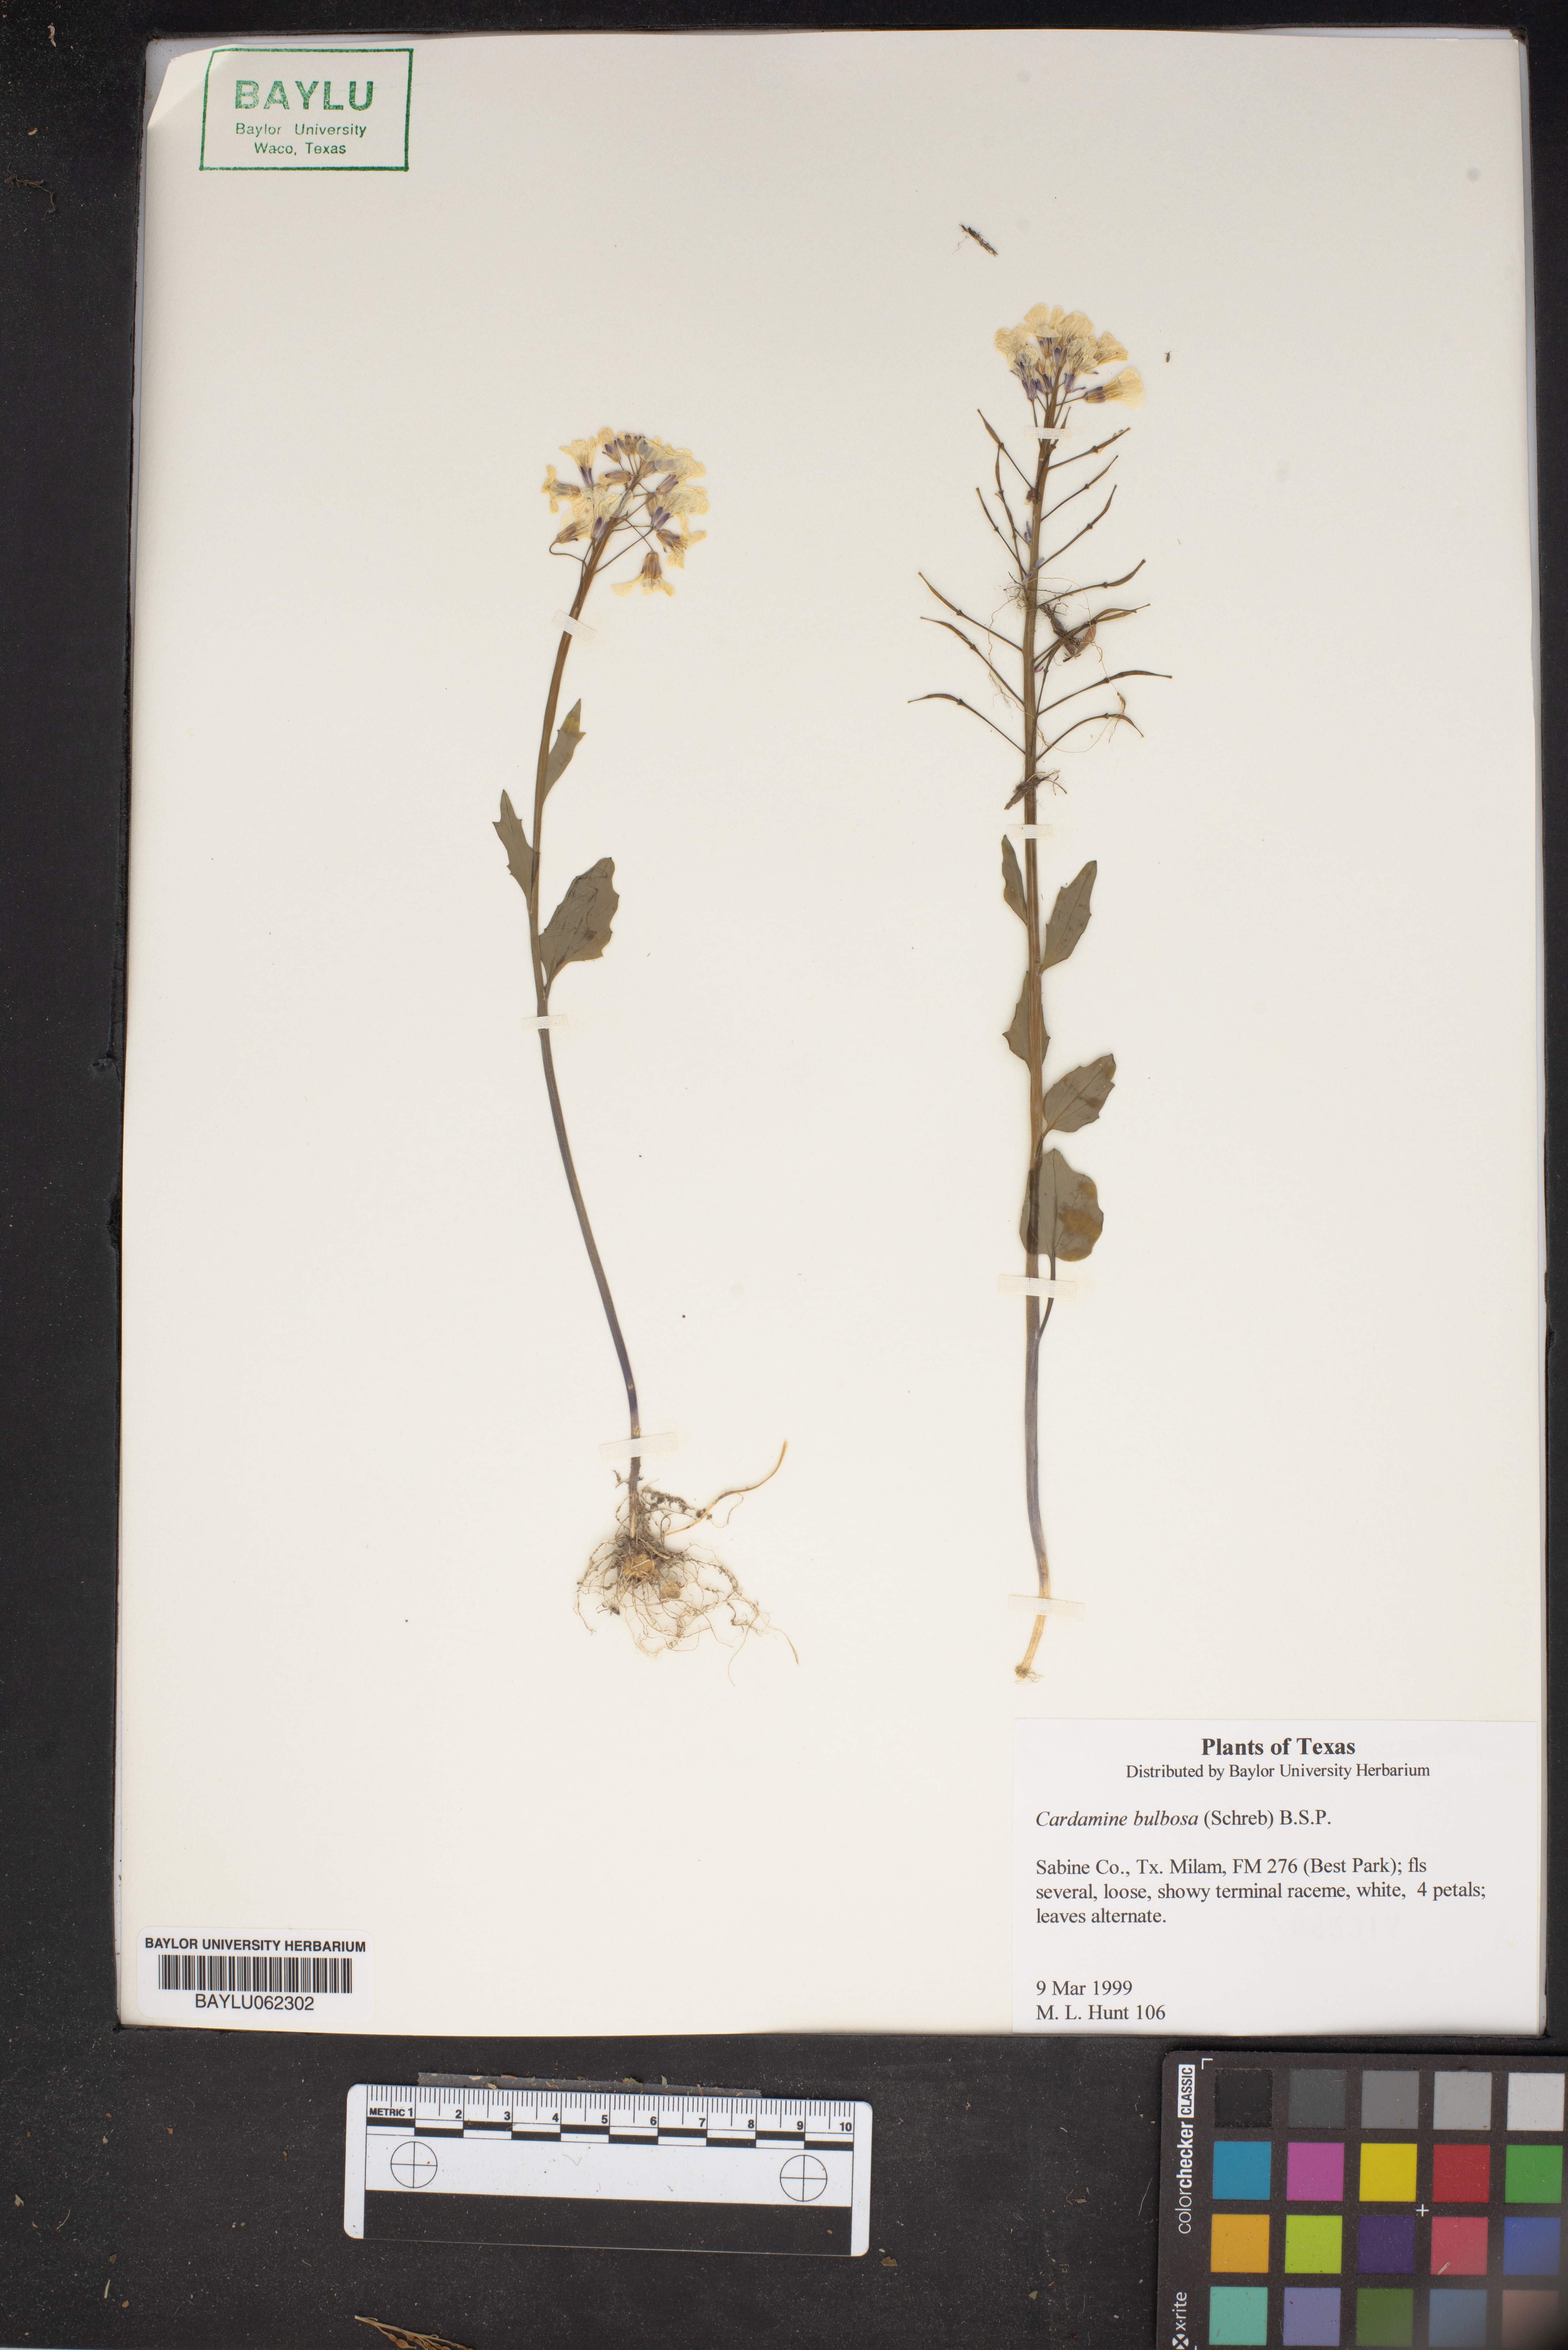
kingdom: Plantae
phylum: Tracheophyta
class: Magnoliopsida
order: Brassicales
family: Brassicaceae
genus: Cardamine
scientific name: Cardamine bulbosa
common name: Spring cress
